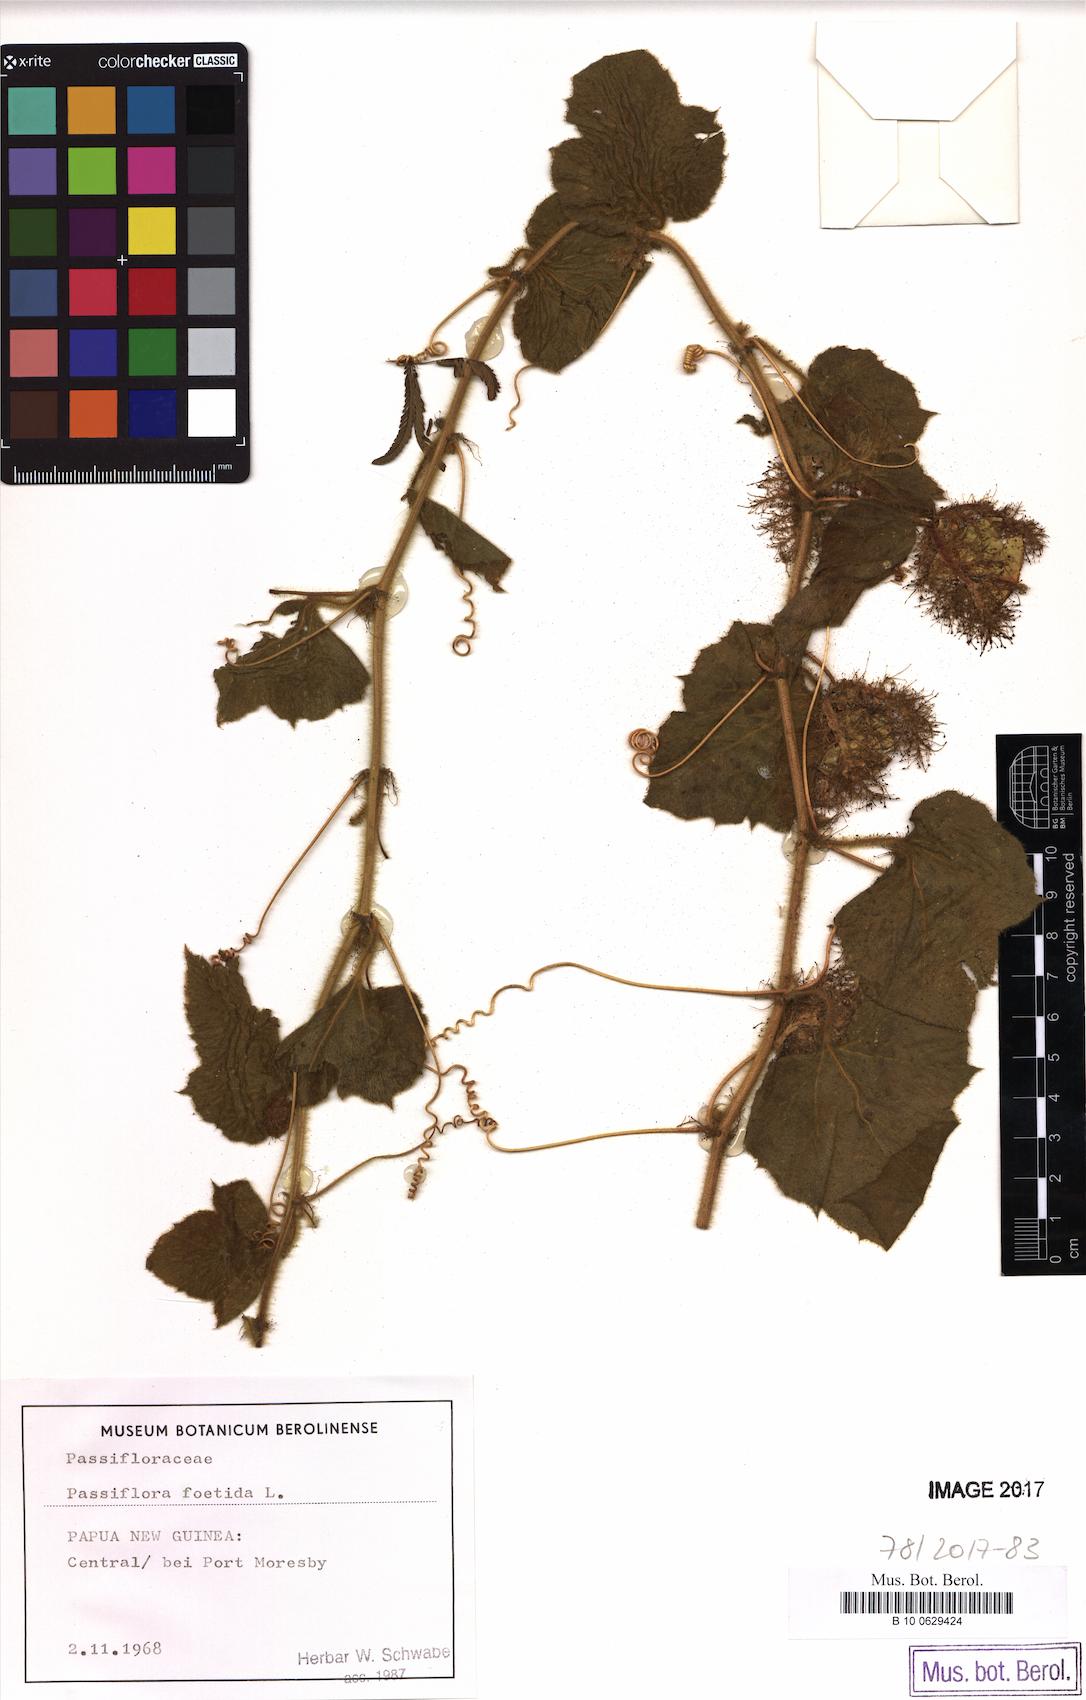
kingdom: Plantae
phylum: Tracheophyta
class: Magnoliopsida
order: Malpighiales
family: Passifloraceae
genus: Passiflora
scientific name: Passiflora foetida
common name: Fetid passionflower
